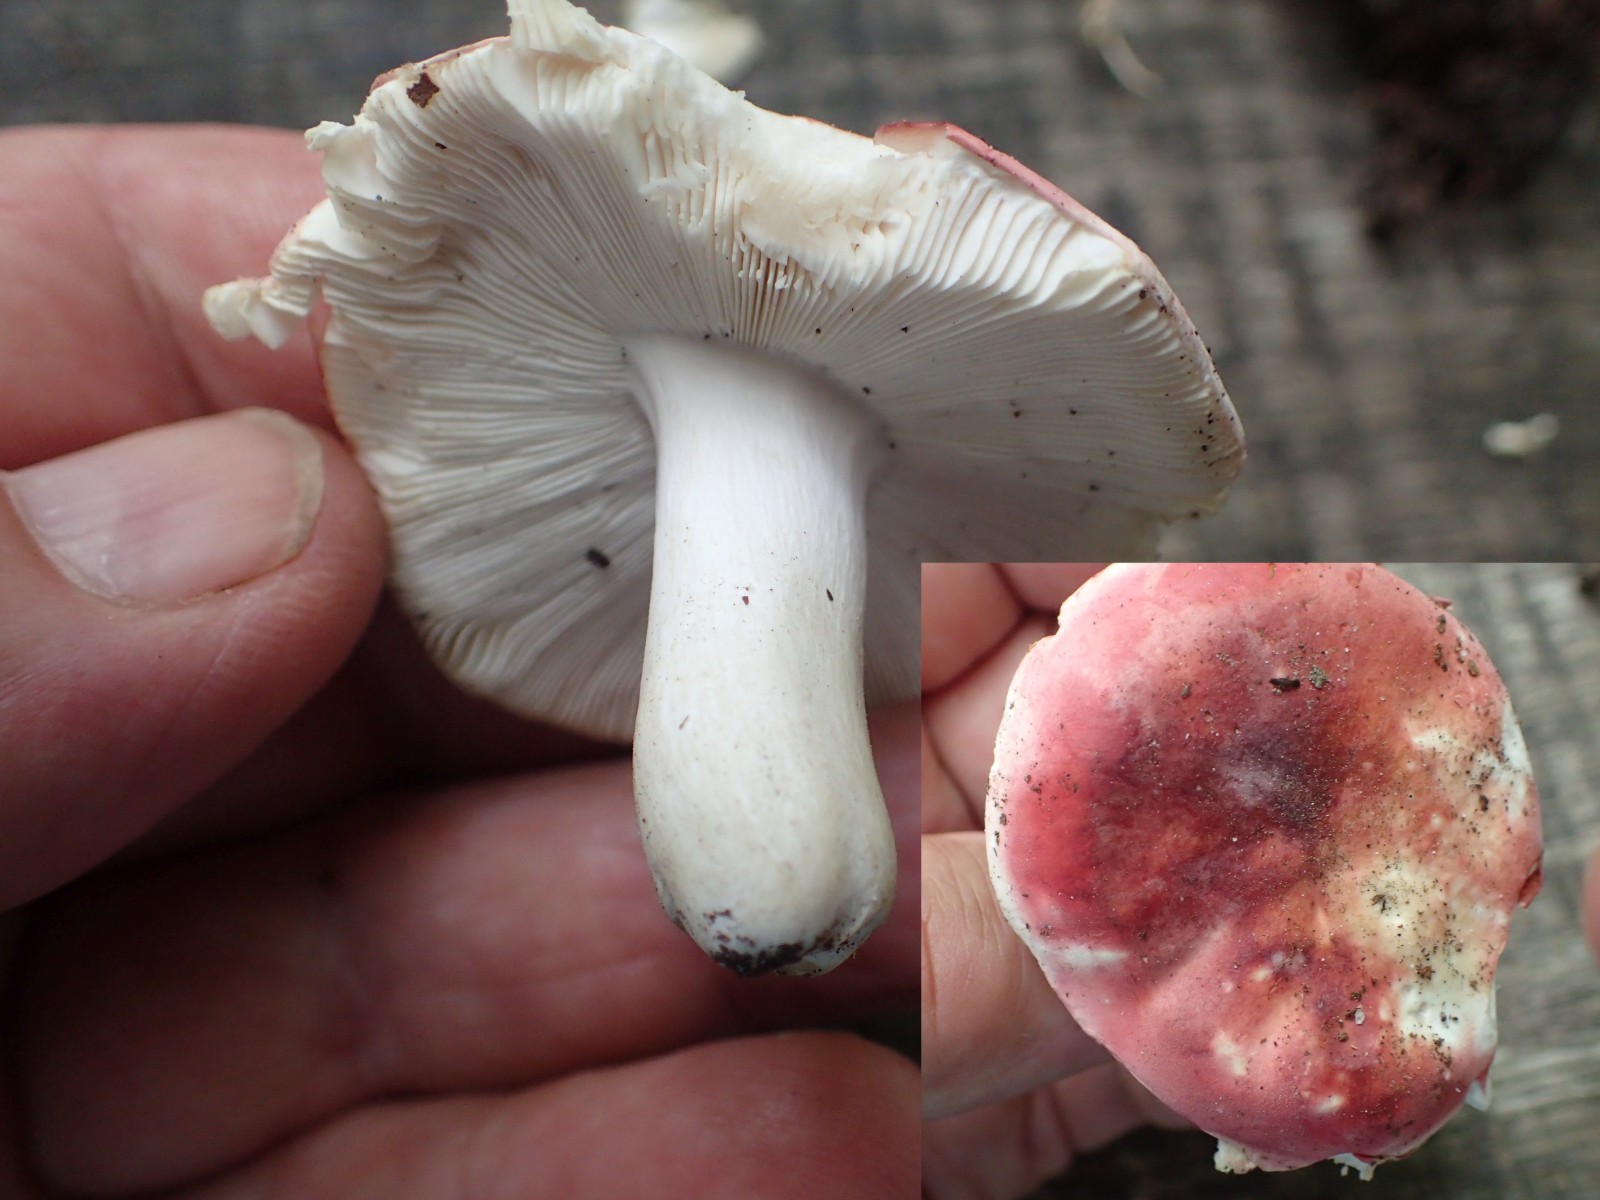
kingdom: Fungi
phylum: Basidiomycota
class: Agaricomycetes
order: Russulales
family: Russulaceae
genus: Russula
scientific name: Russula aurora
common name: rosa skørhat
